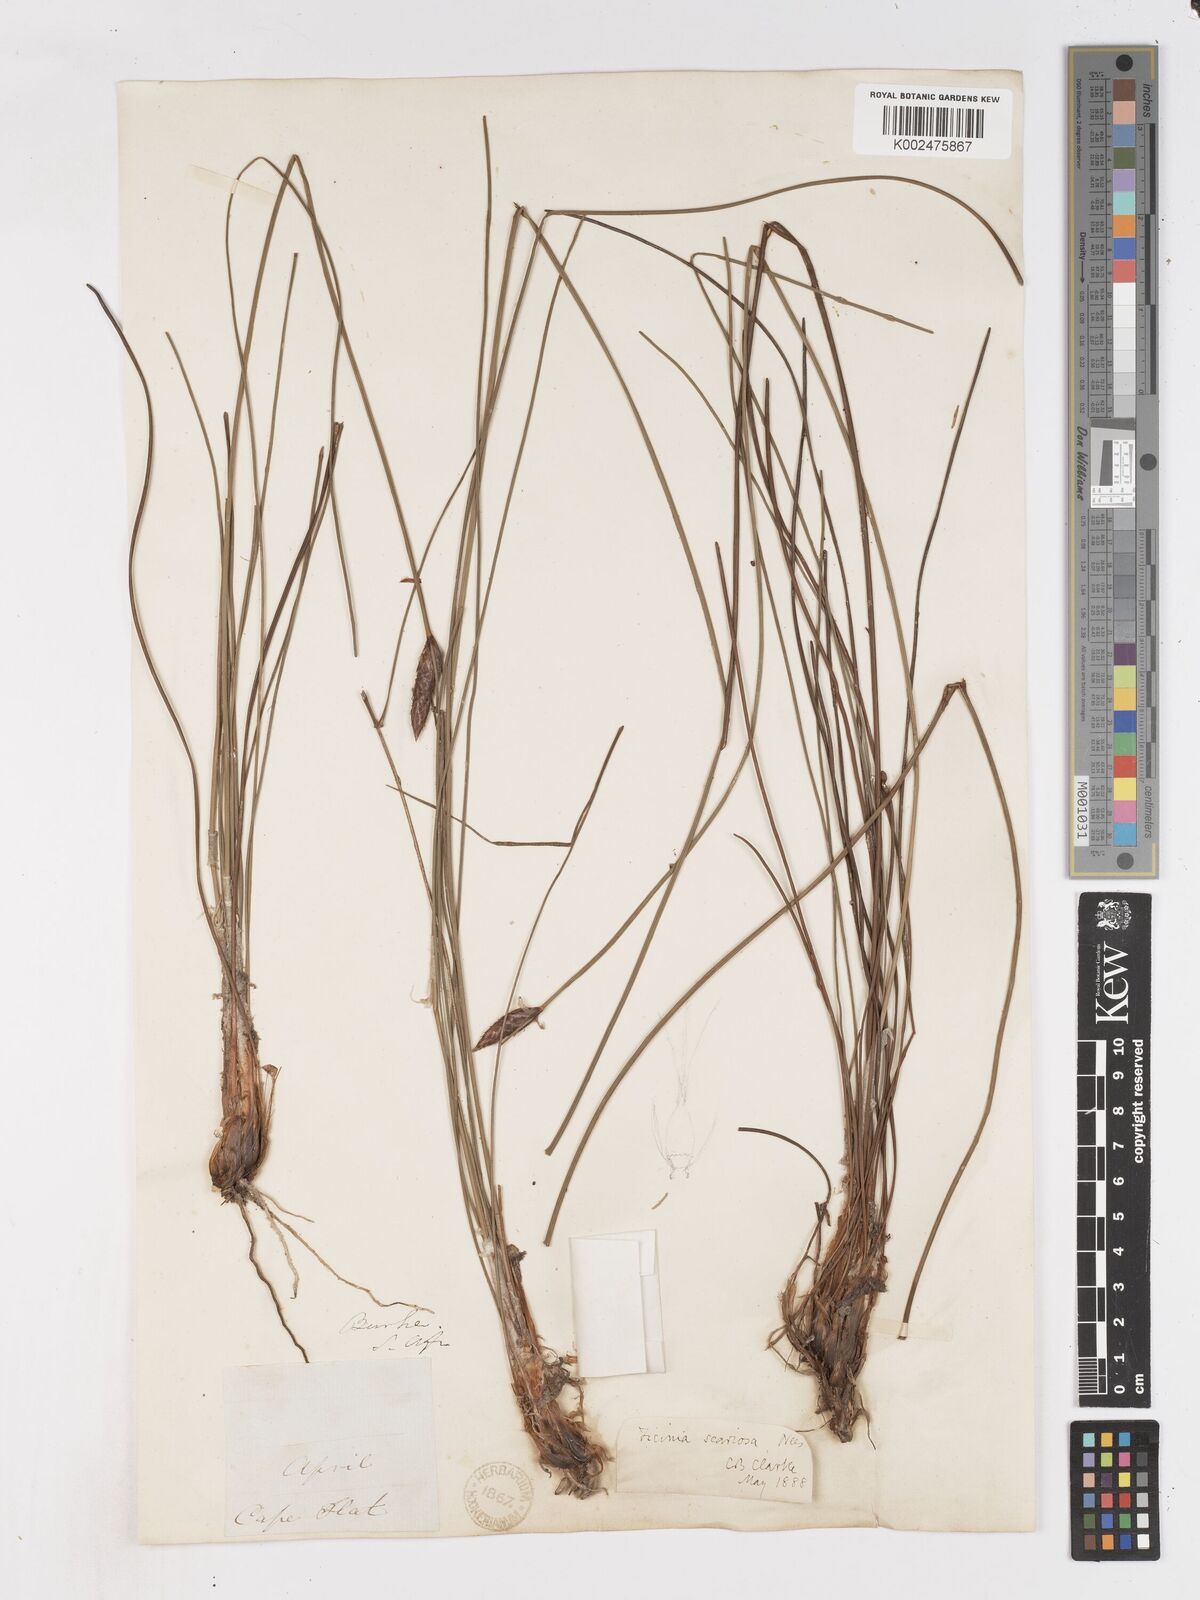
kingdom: Plantae
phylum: Tracheophyta
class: Liliopsida
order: Poales
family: Cyperaceae
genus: Ficinia
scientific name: Ficinia deusta
